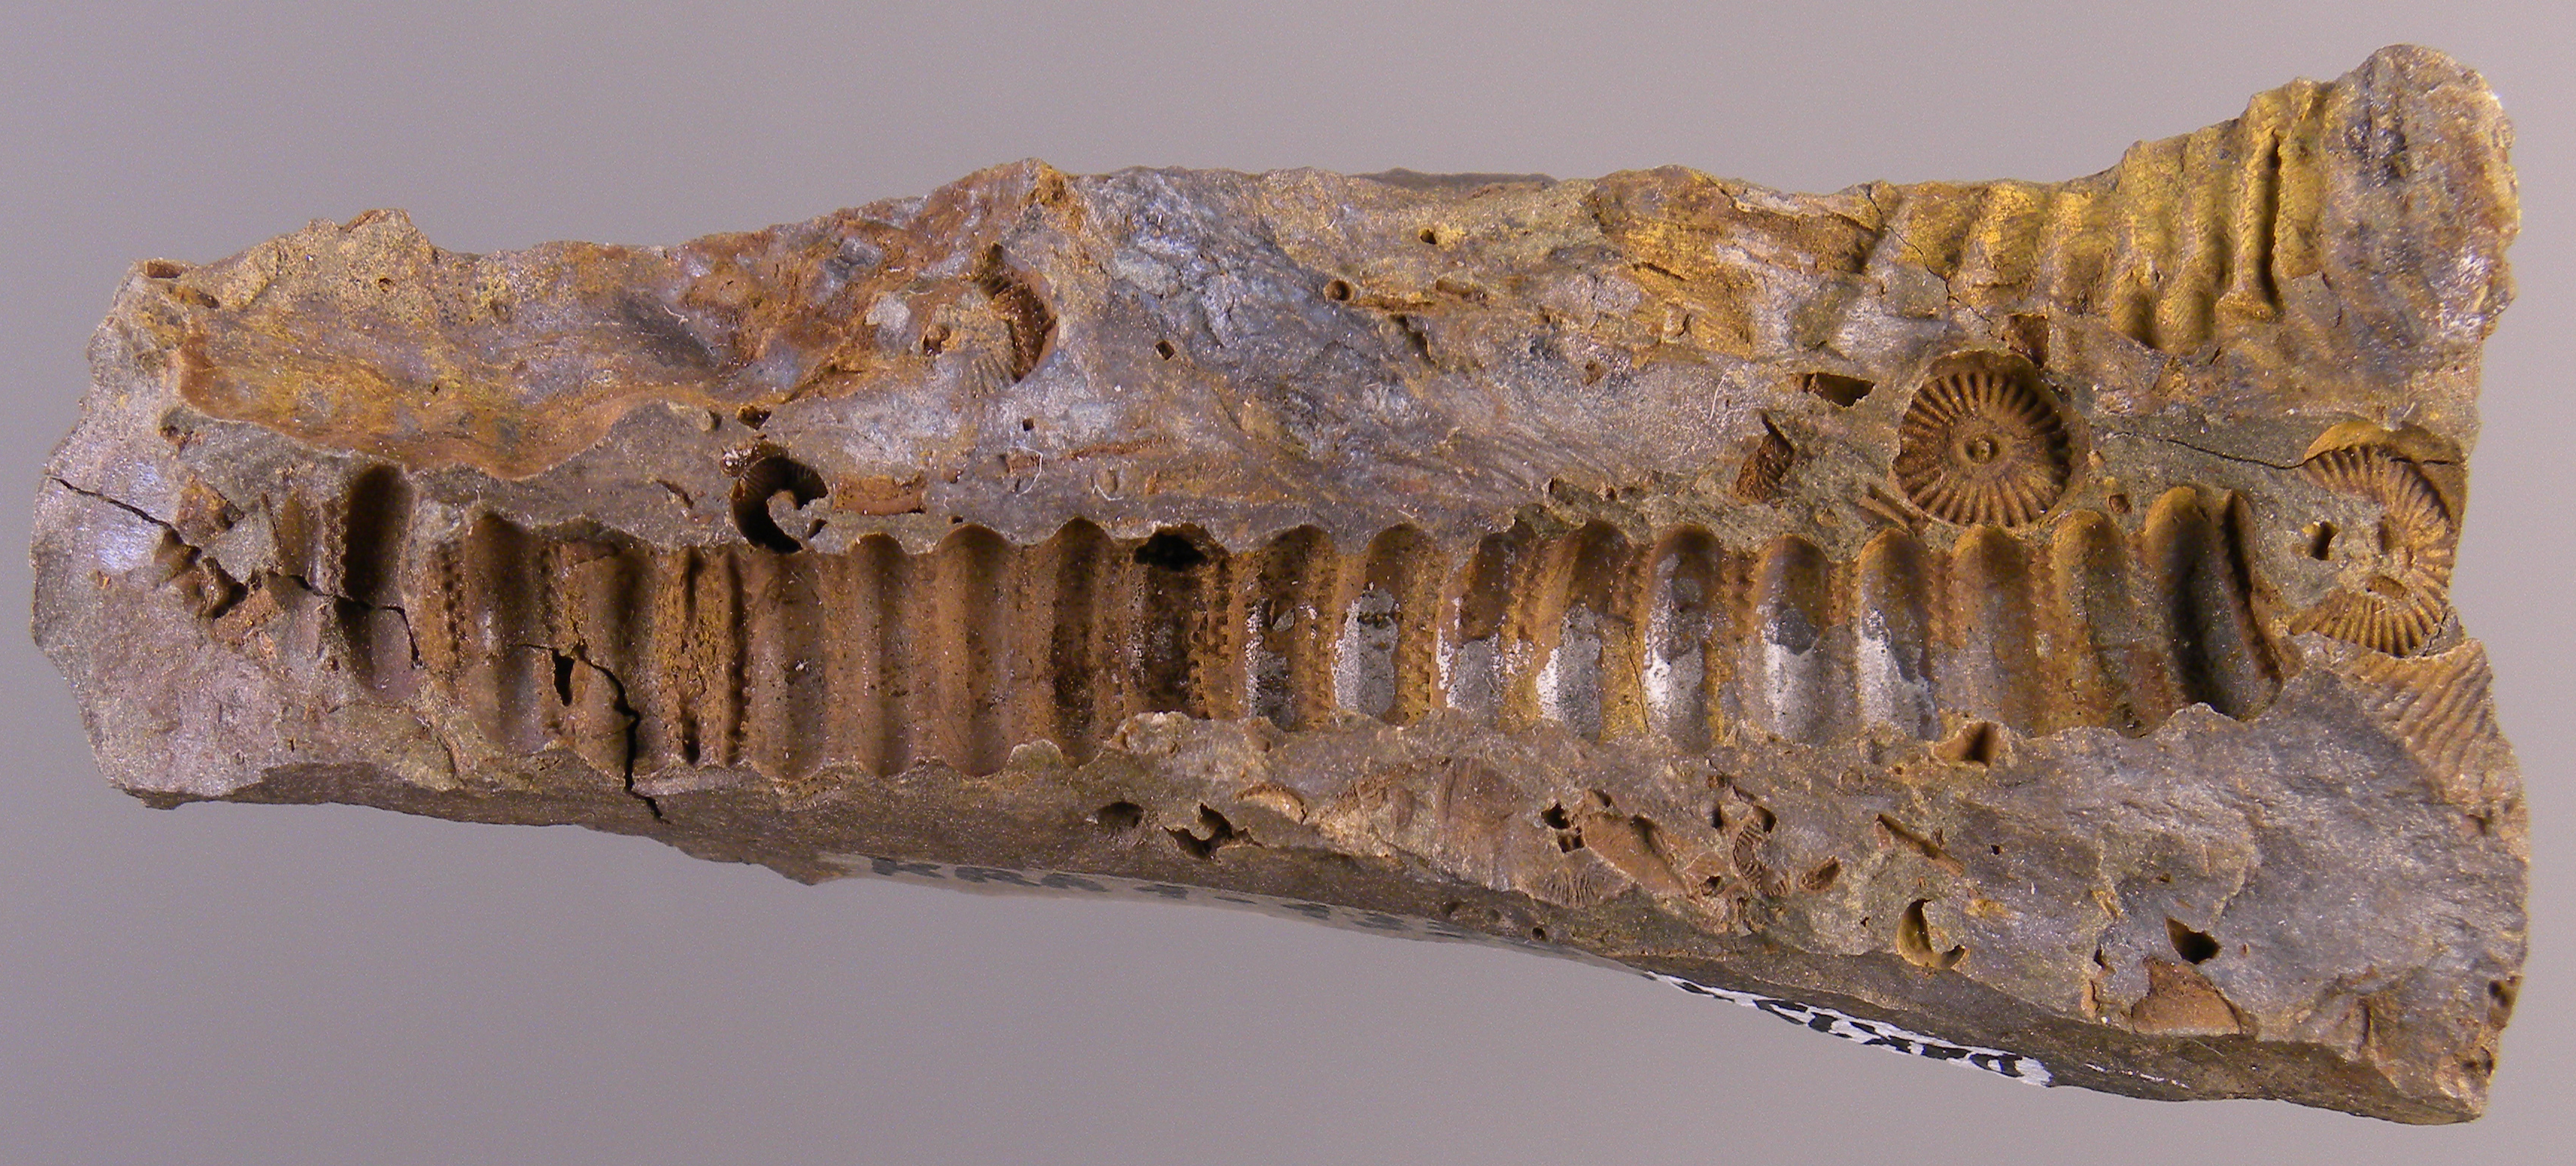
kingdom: Animalia
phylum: Echinodermata
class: Crinoidea
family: Melocrinitidae
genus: Ctenocrinus
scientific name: Ctenocrinus
